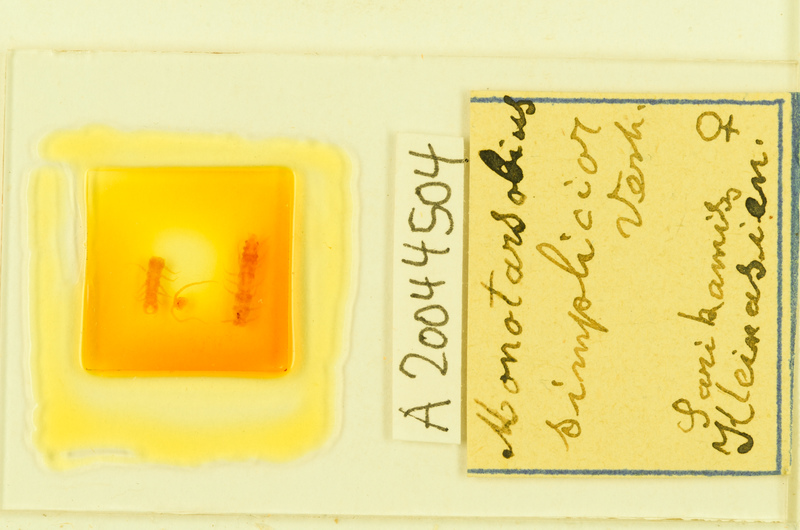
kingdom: Animalia
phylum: Arthropoda
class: Chilopoda
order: Lithobiomorpha
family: Lithobiidae
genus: Monotarsobius
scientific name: Monotarsobius
